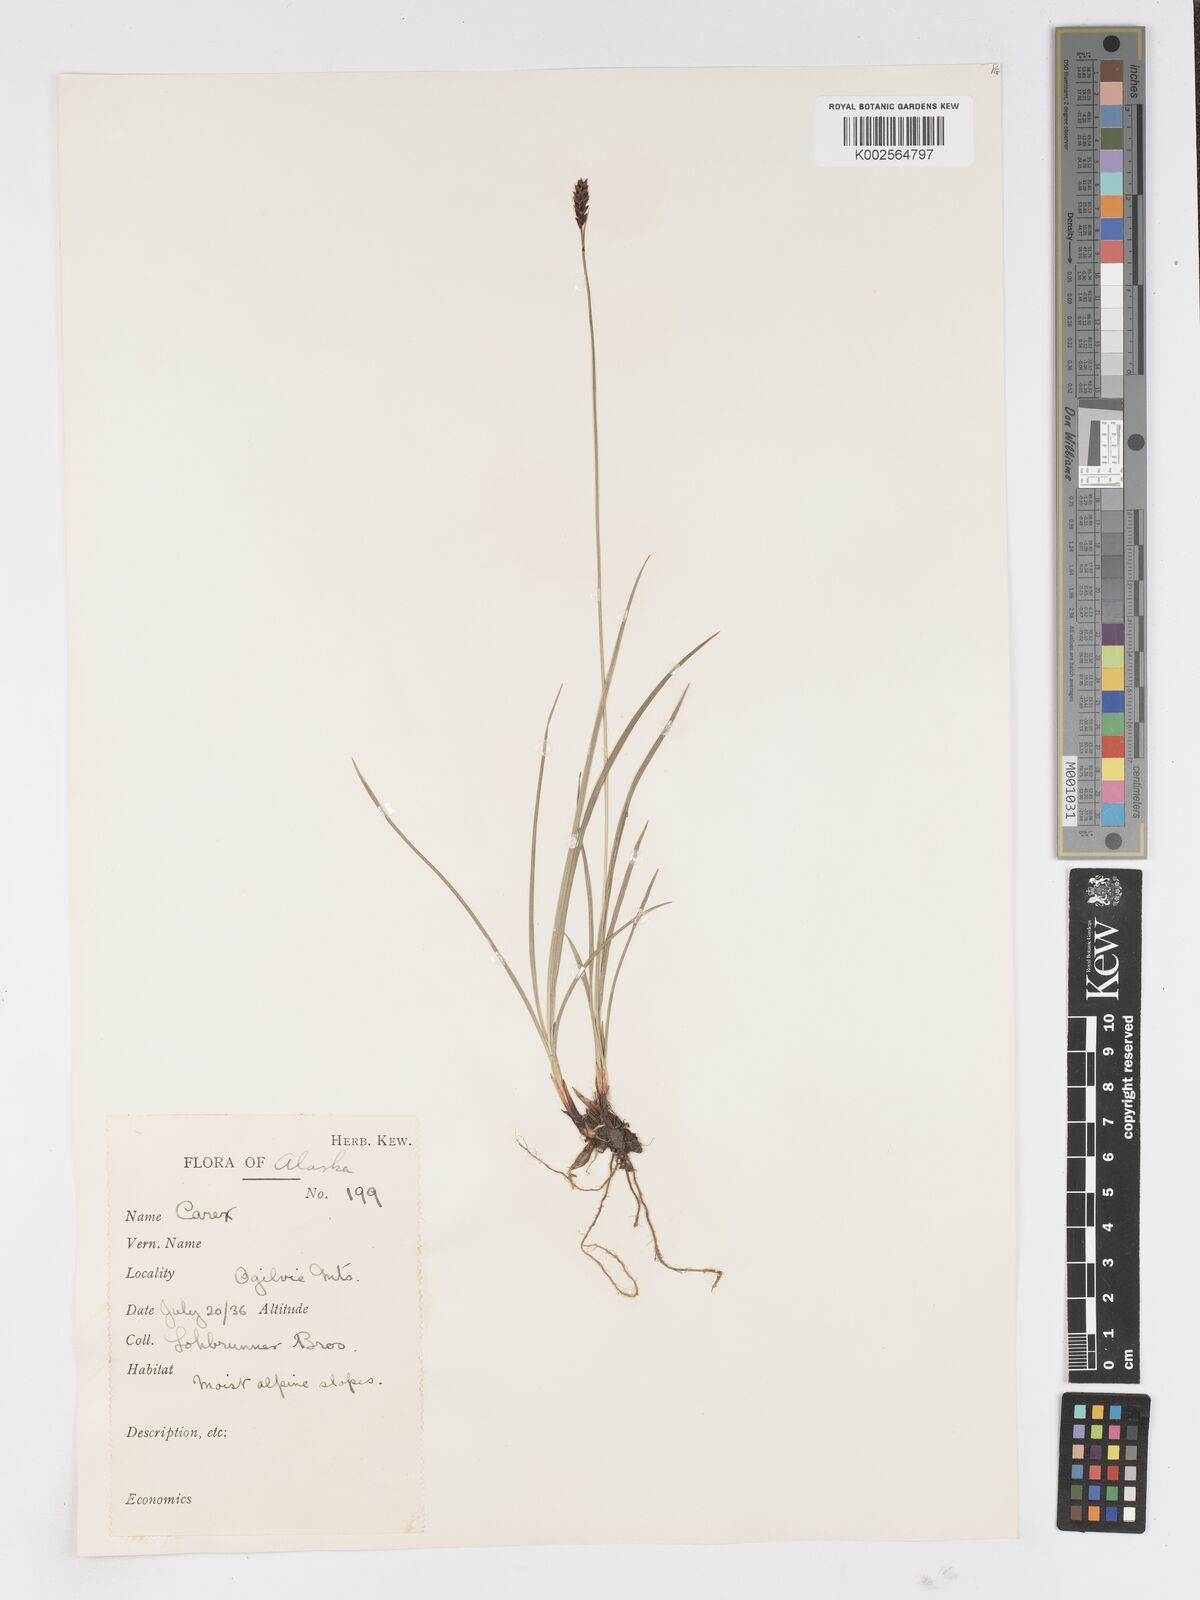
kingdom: Plantae
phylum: Tracheophyta
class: Liliopsida
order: Poales
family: Cyperaceae
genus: Carex
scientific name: Carex
